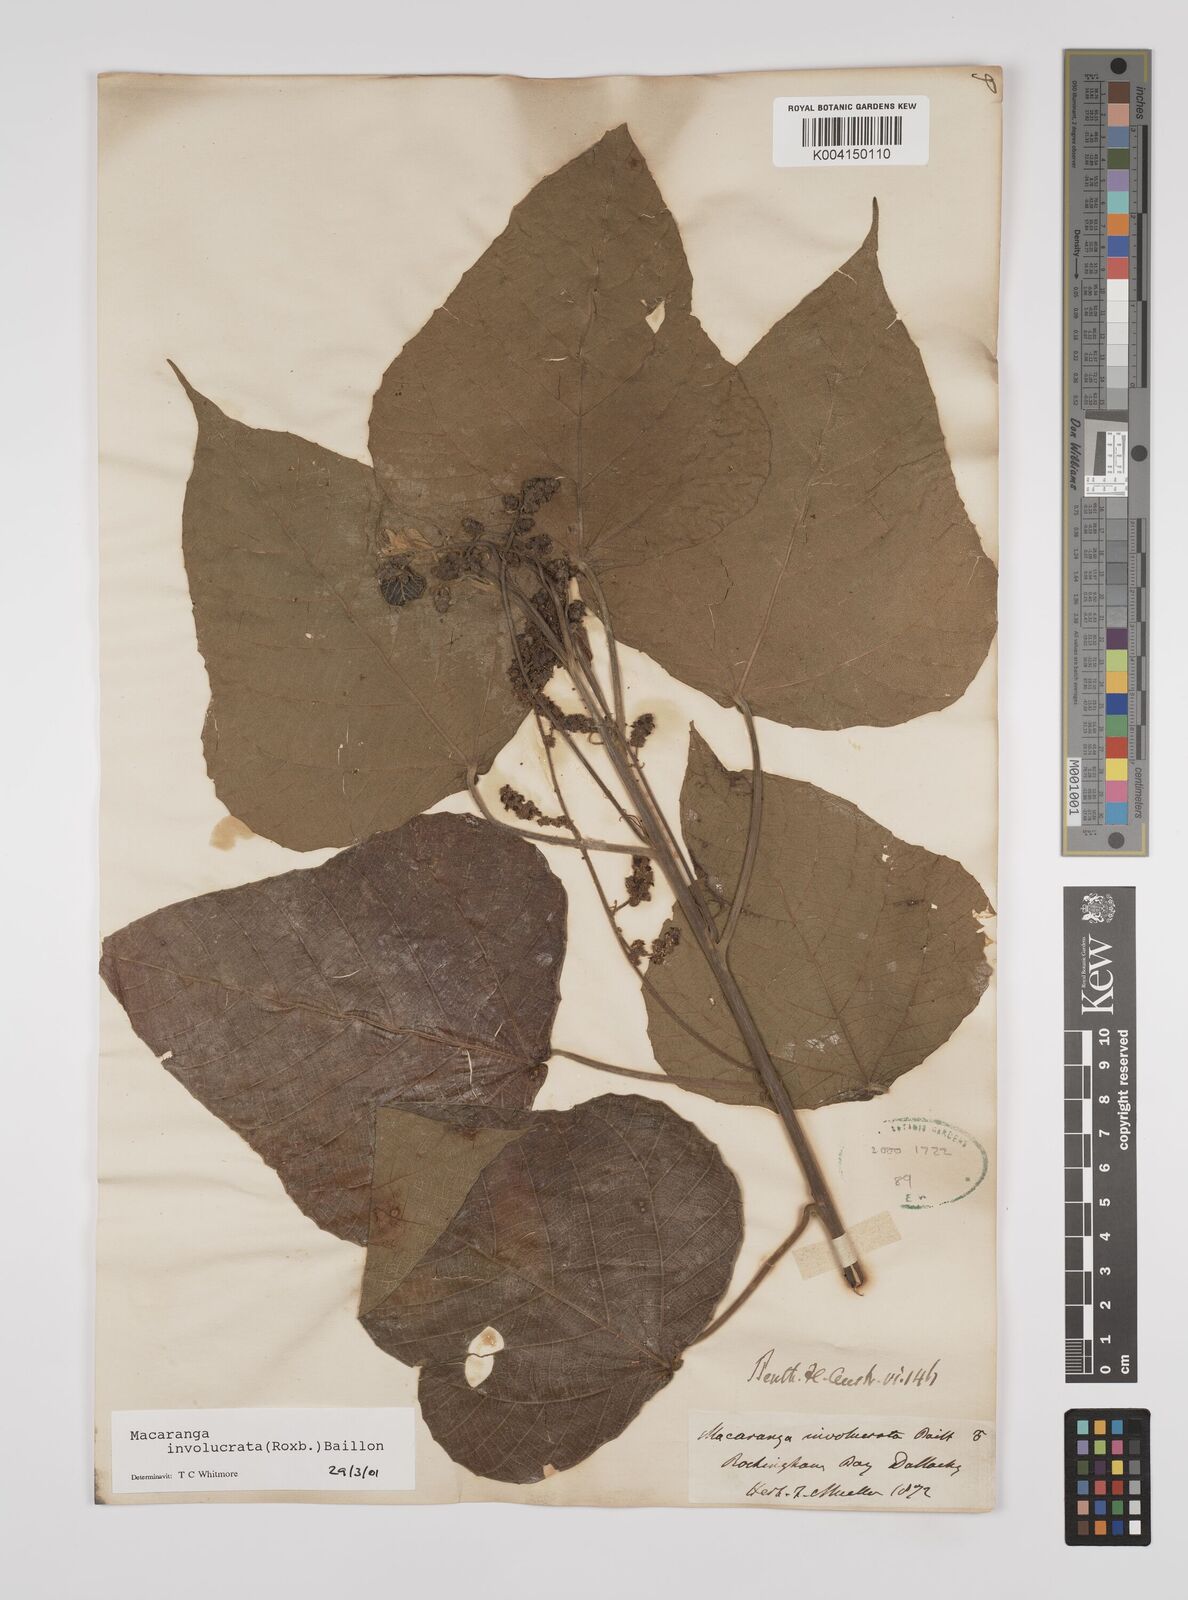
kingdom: Plantae
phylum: Tracheophyta
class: Magnoliopsida
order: Malpighiales
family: Euphorbiaceae
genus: Macaranga
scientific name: Macaranga involucrata
